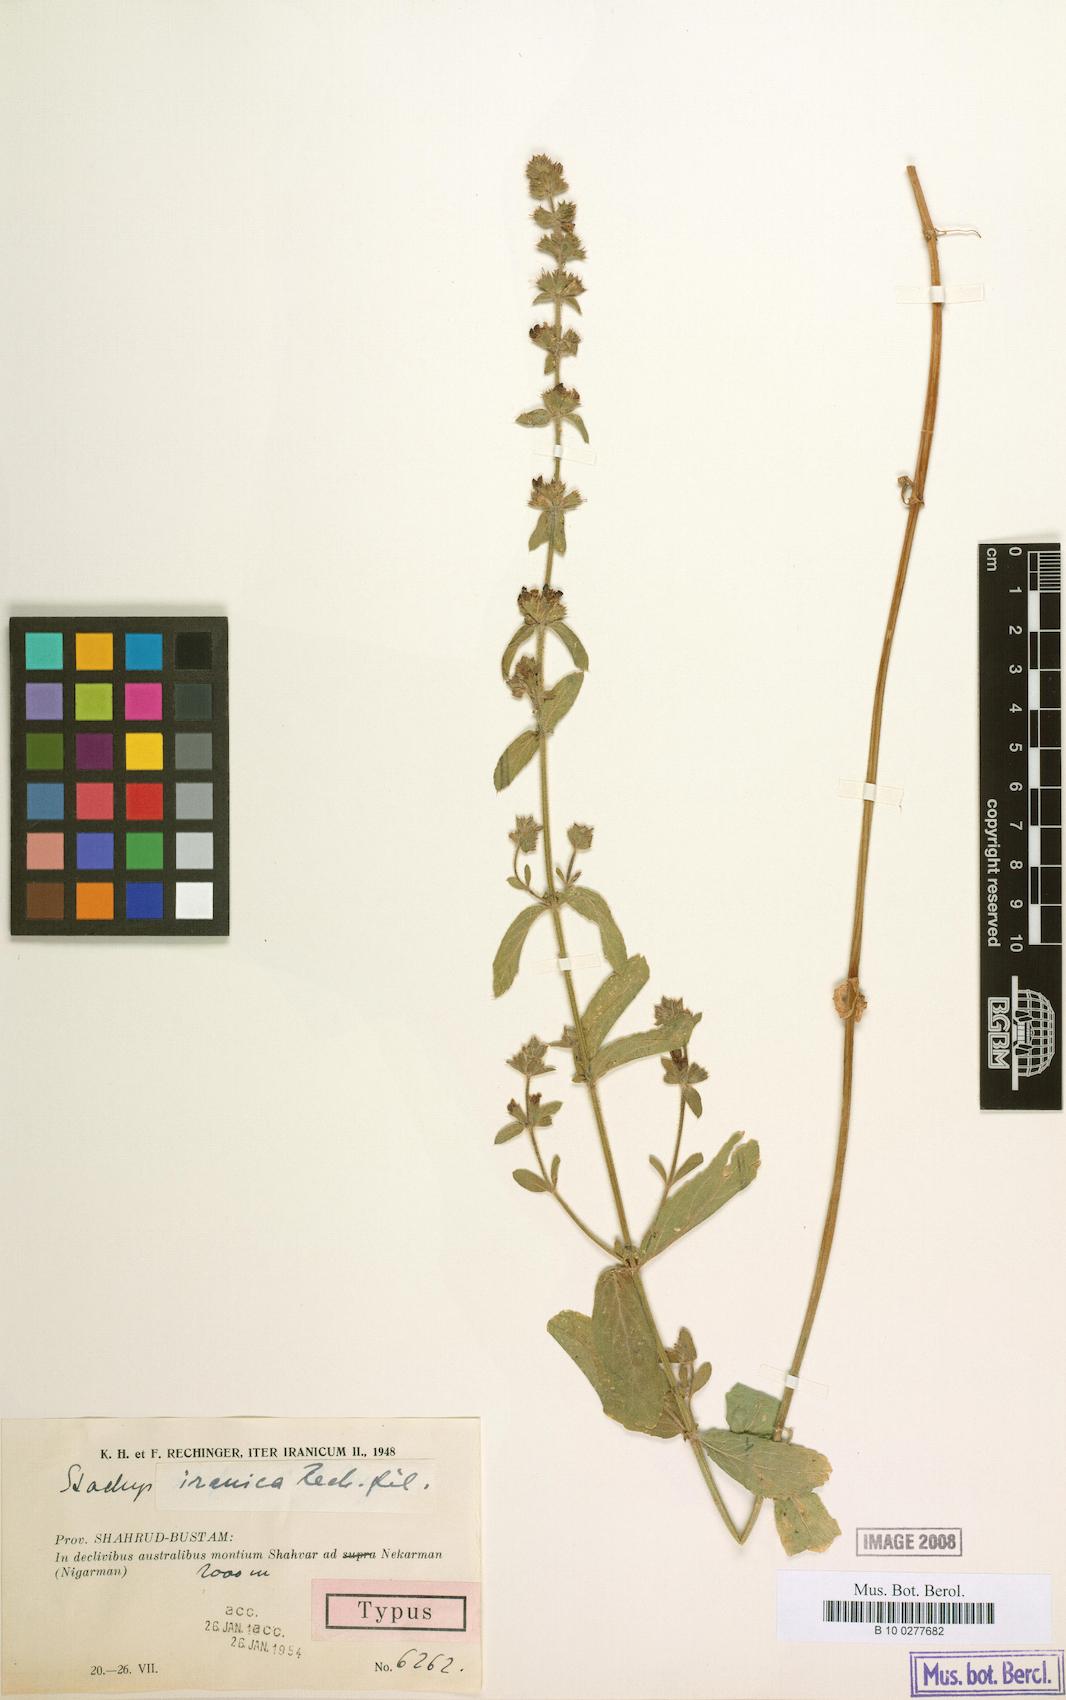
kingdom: Plantae
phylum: Tracheophyta
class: Magnoliopsida
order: Lamiales
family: Lamiaceae
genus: Stachys
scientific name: Stachys setifera
